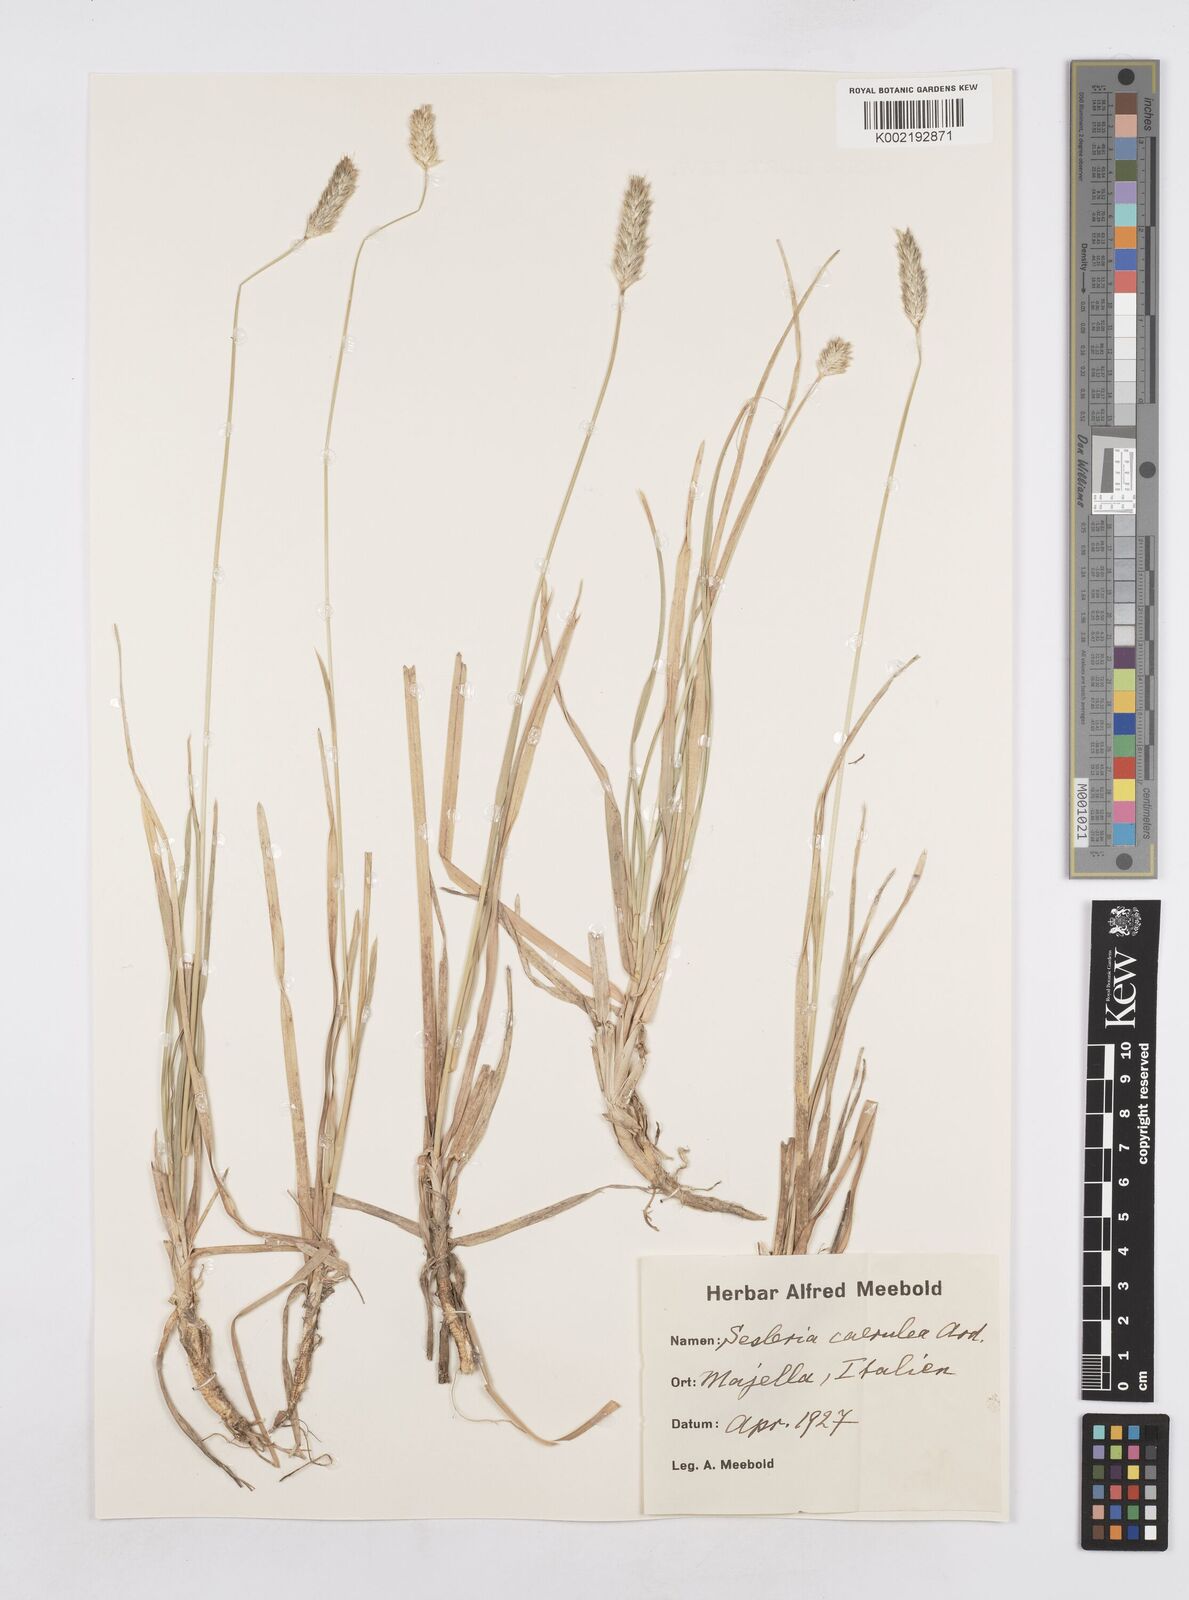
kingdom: Plantae
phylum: Tracheophyta
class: Liliopsida
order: Poales
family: Poaceae
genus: Sesleria
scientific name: Sesleria albicans
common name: Blue moor-grass
